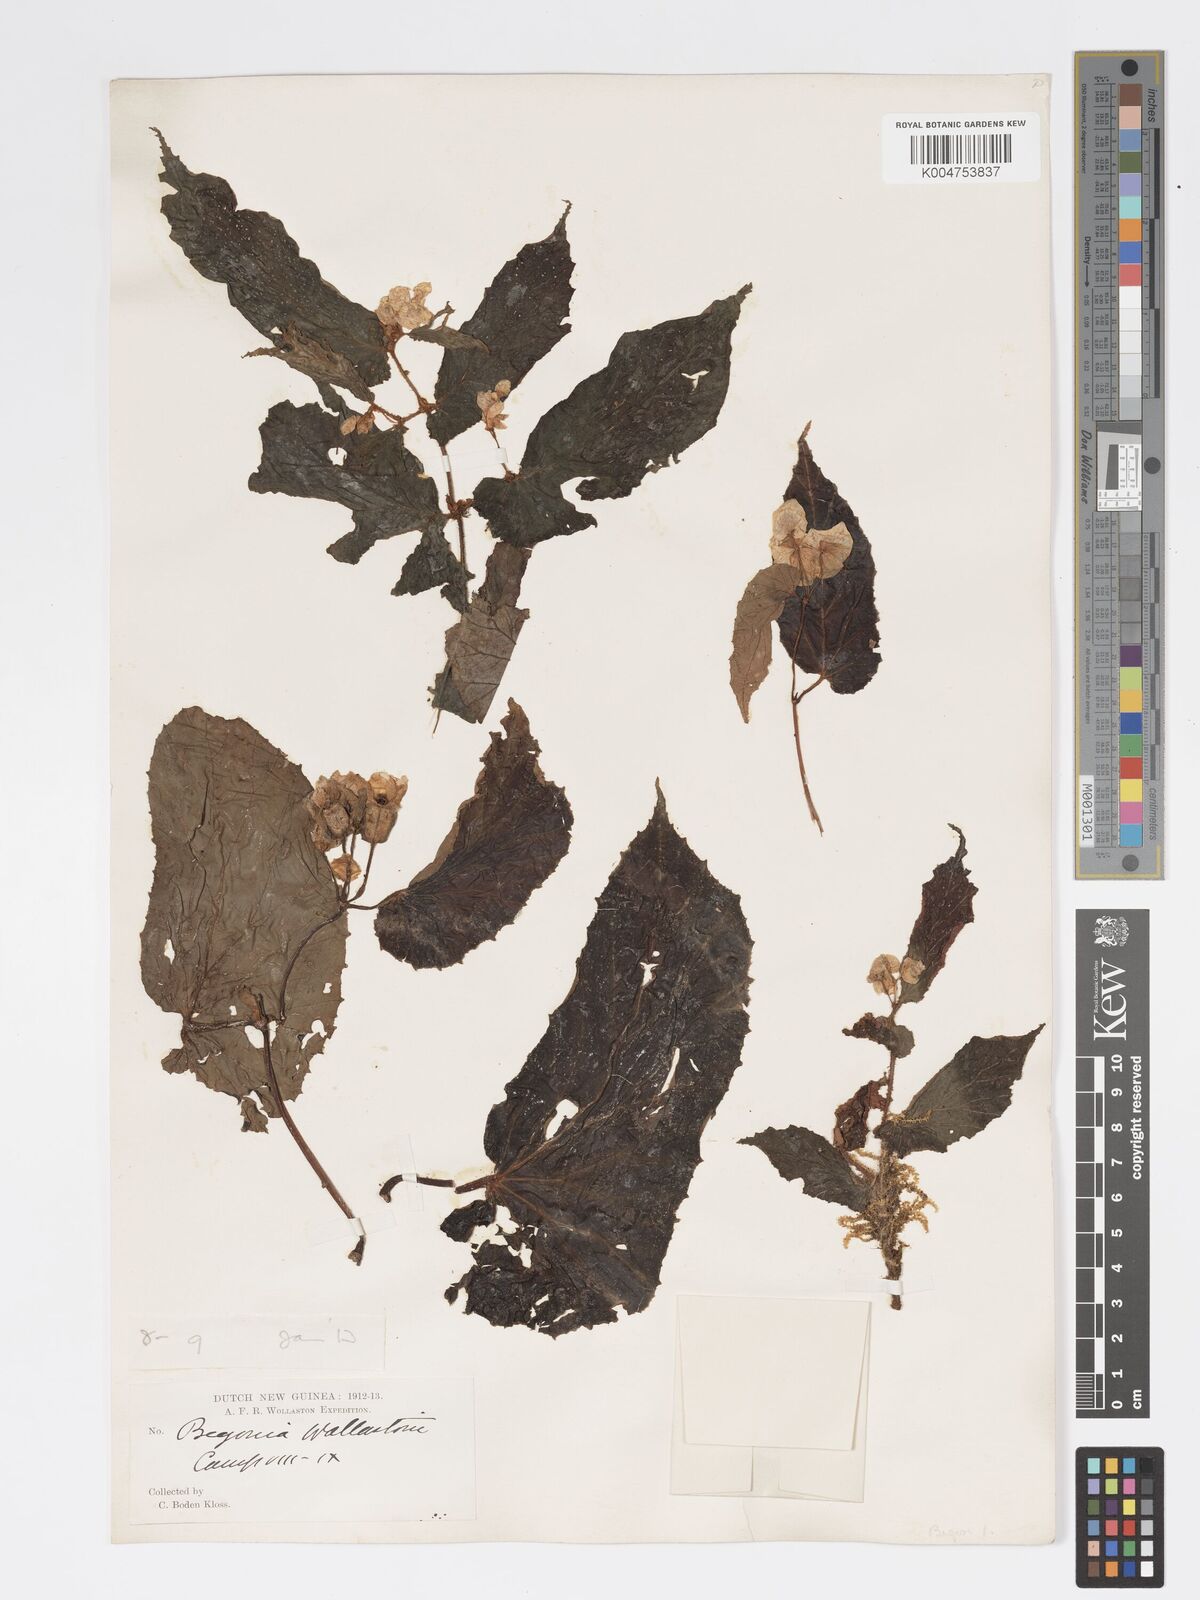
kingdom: Plantae
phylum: Tracheophyta
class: Magnoliopsida
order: Cucurbitales
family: Begoniaceae
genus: Begonia
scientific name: Begonia wollastonii
